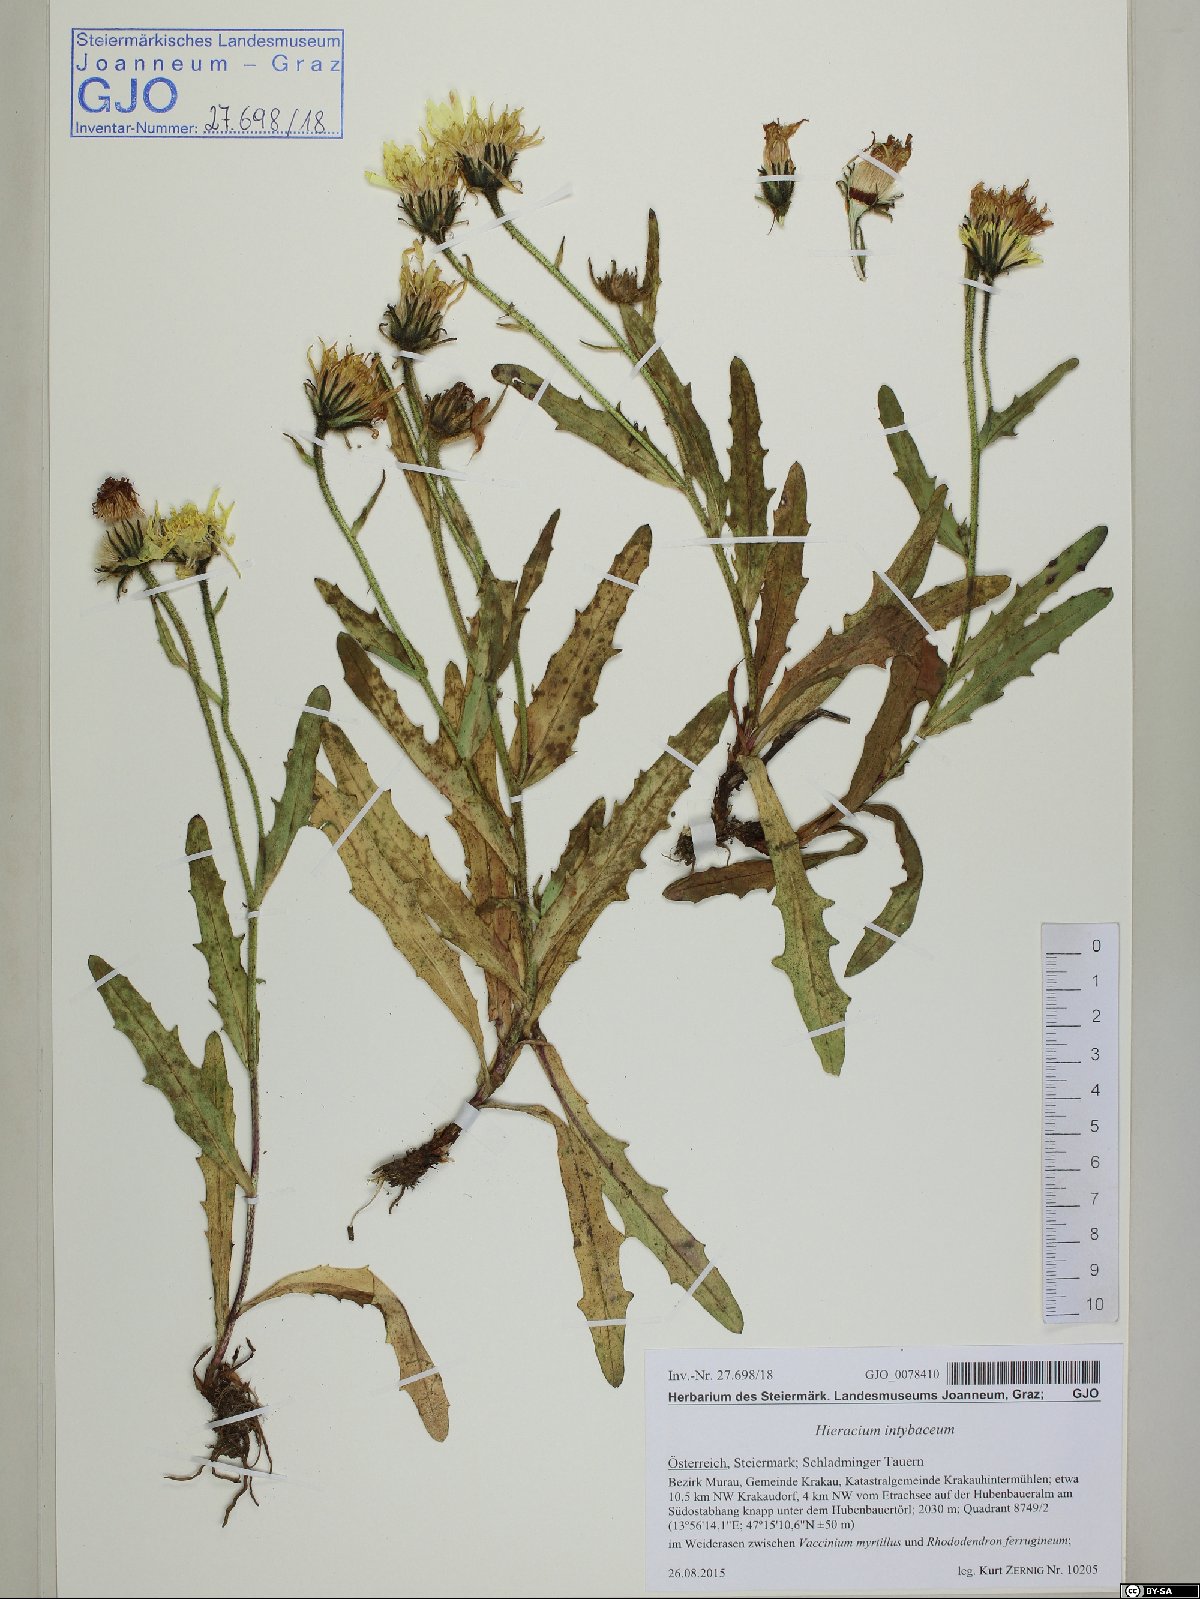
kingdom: Plantae
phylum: Tracheophyta
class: Magnoliopsida
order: Asterales
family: Asteraceae
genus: Schlagintweitia
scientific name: Schlagintweitia intybacea
